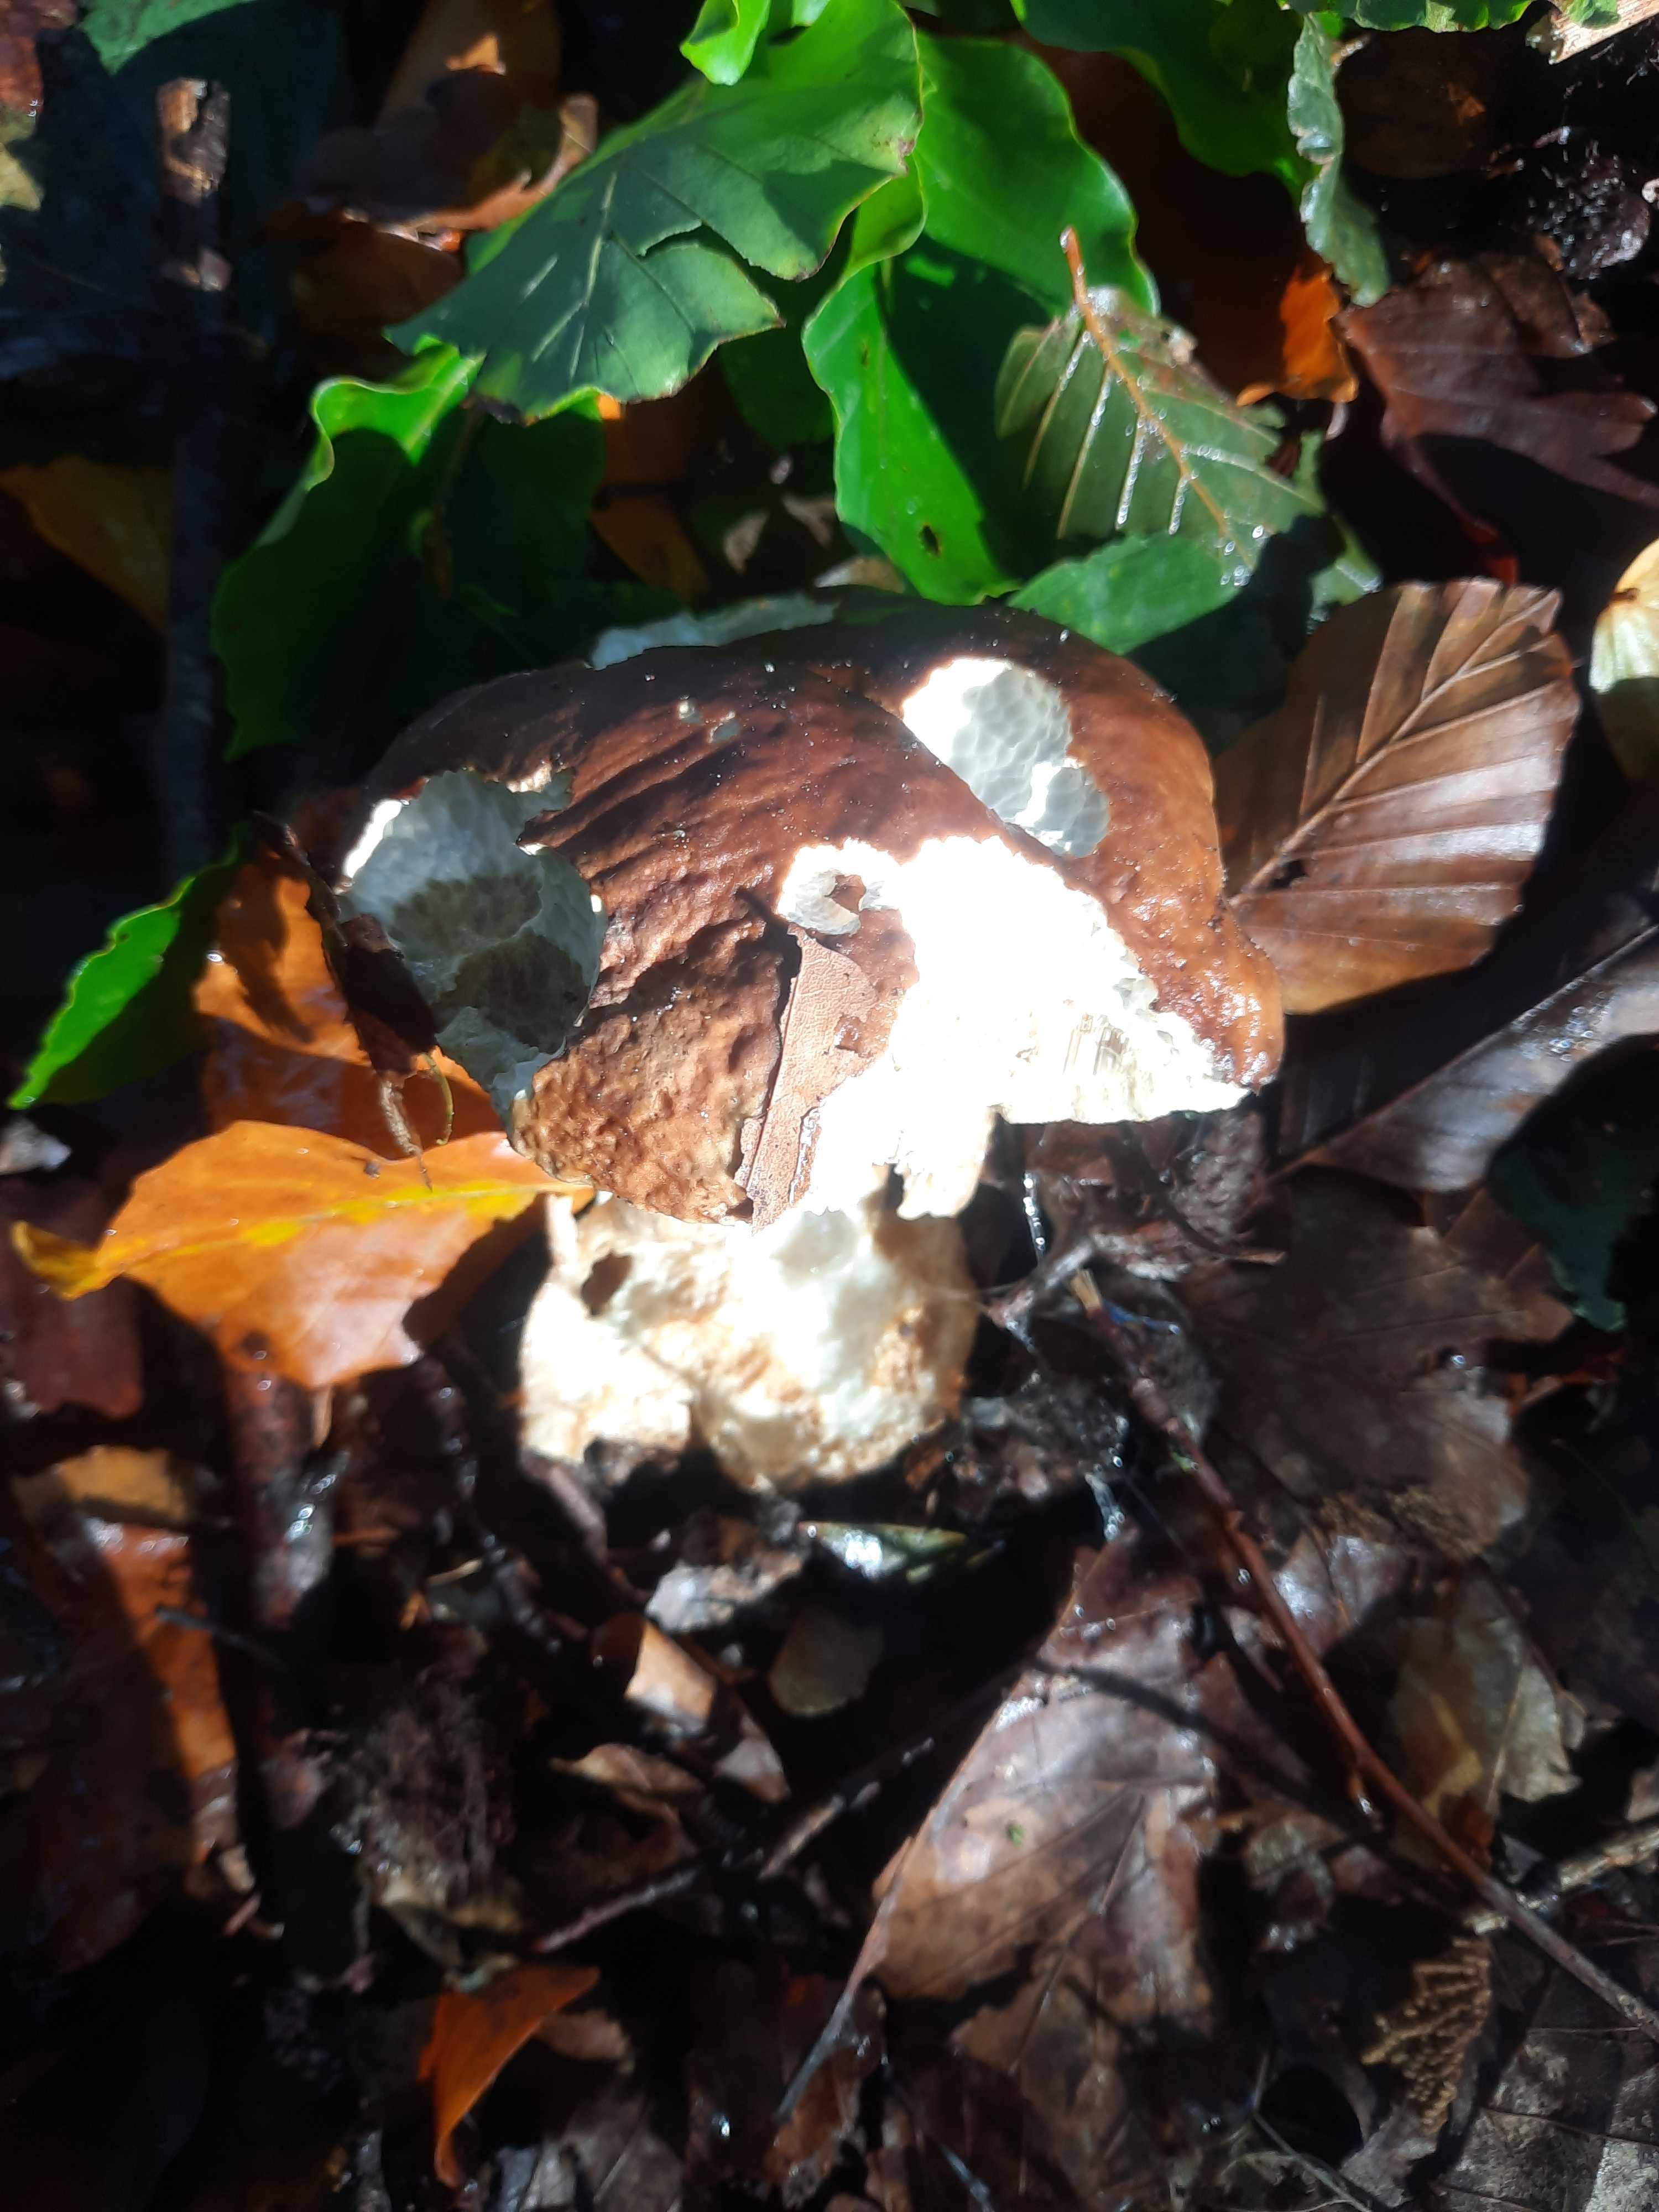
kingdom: Fungi
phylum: Basidiomycota
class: Agaricomycetes
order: Boletales
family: Boletaceae
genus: Boletus
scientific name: Boletus edulis
